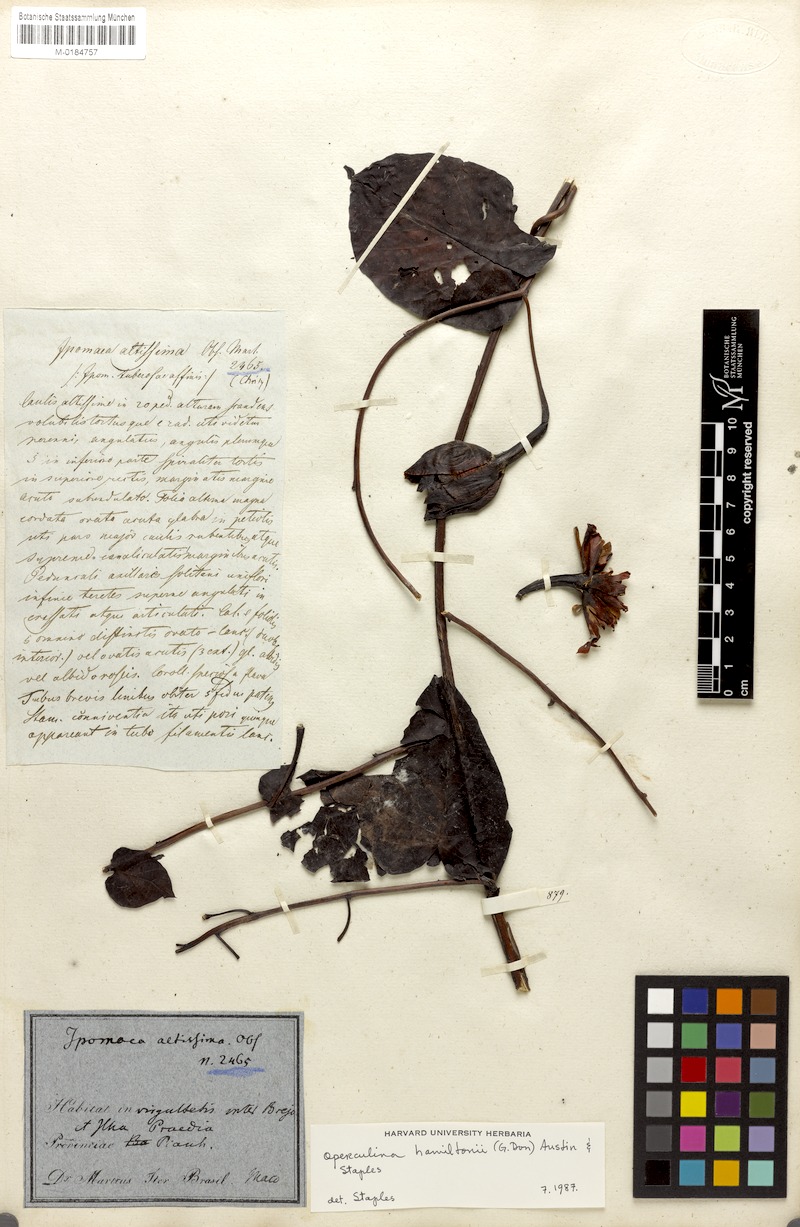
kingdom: Plantae
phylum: Tracheophyta
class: Magnoliopsida
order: Solanales
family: Convolvulaceae
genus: Operculina
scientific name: Operculina hamiltonii
